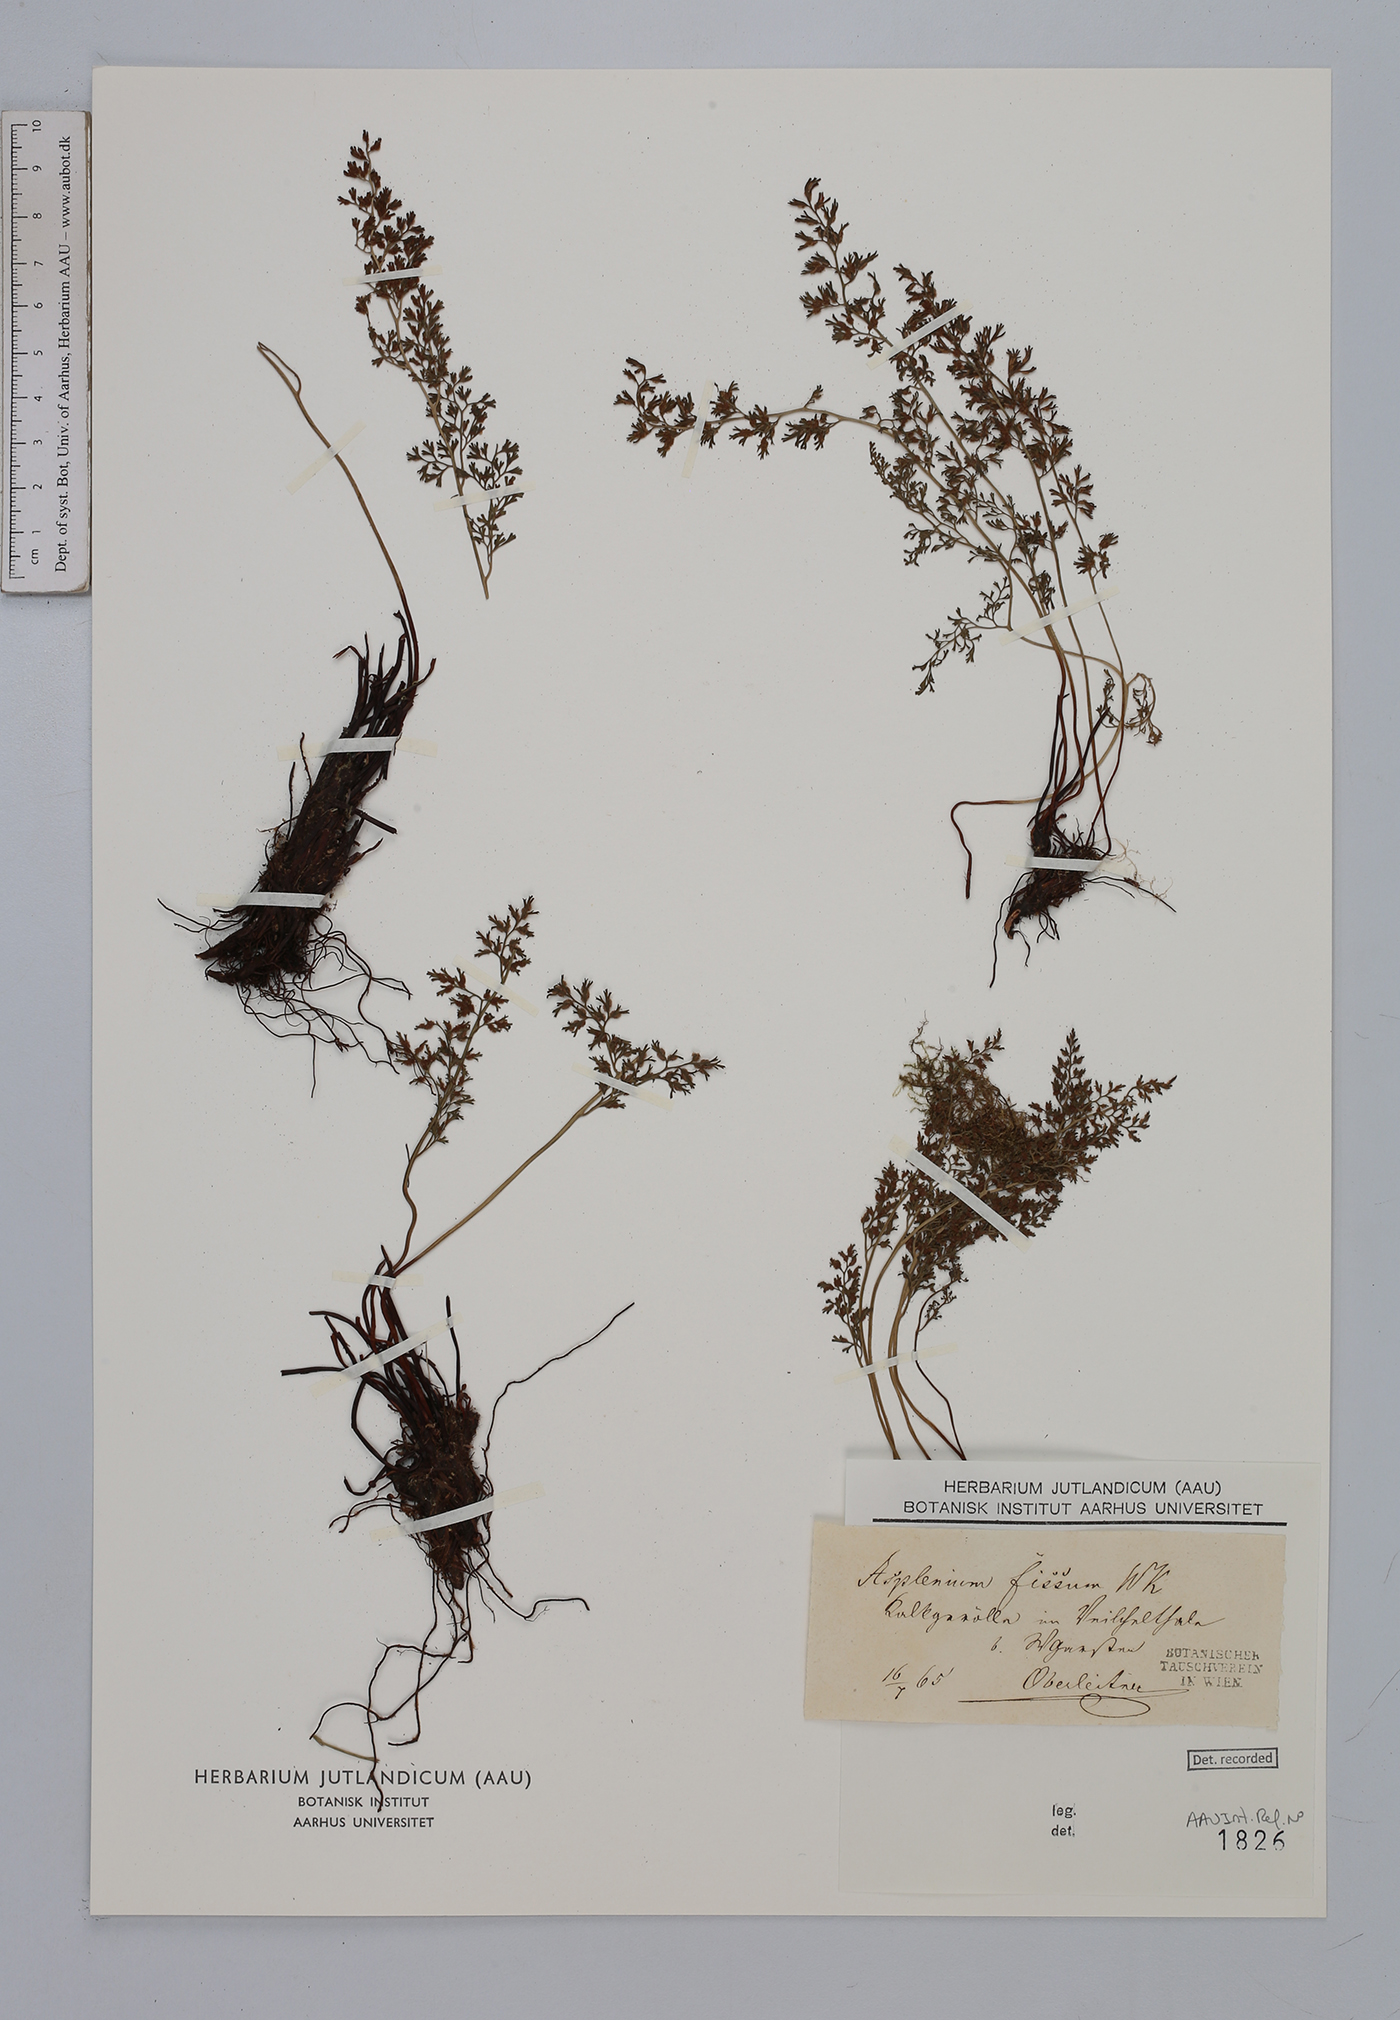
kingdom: Plantae
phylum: Tracheophyta
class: Polypodiopsida
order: Polypodiales
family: Aspleniaceae
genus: Asplenium
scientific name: Asplenium fissum
